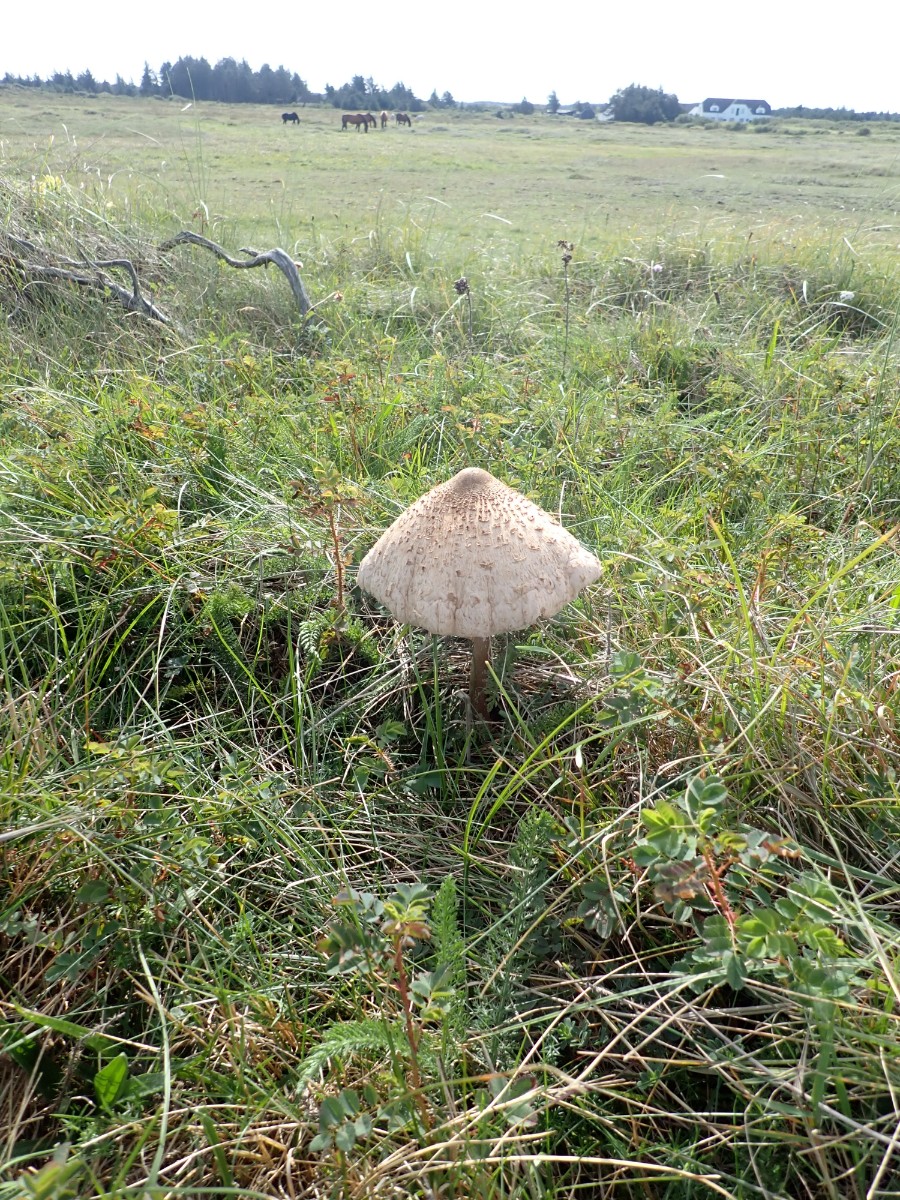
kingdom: Fungi
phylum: Basidiomycota
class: Agaricomycetes
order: Agaricales
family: Agaricaceae
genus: Macrolepiota
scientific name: Macrolepiota procera
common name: stor kæmpeparasolhat
